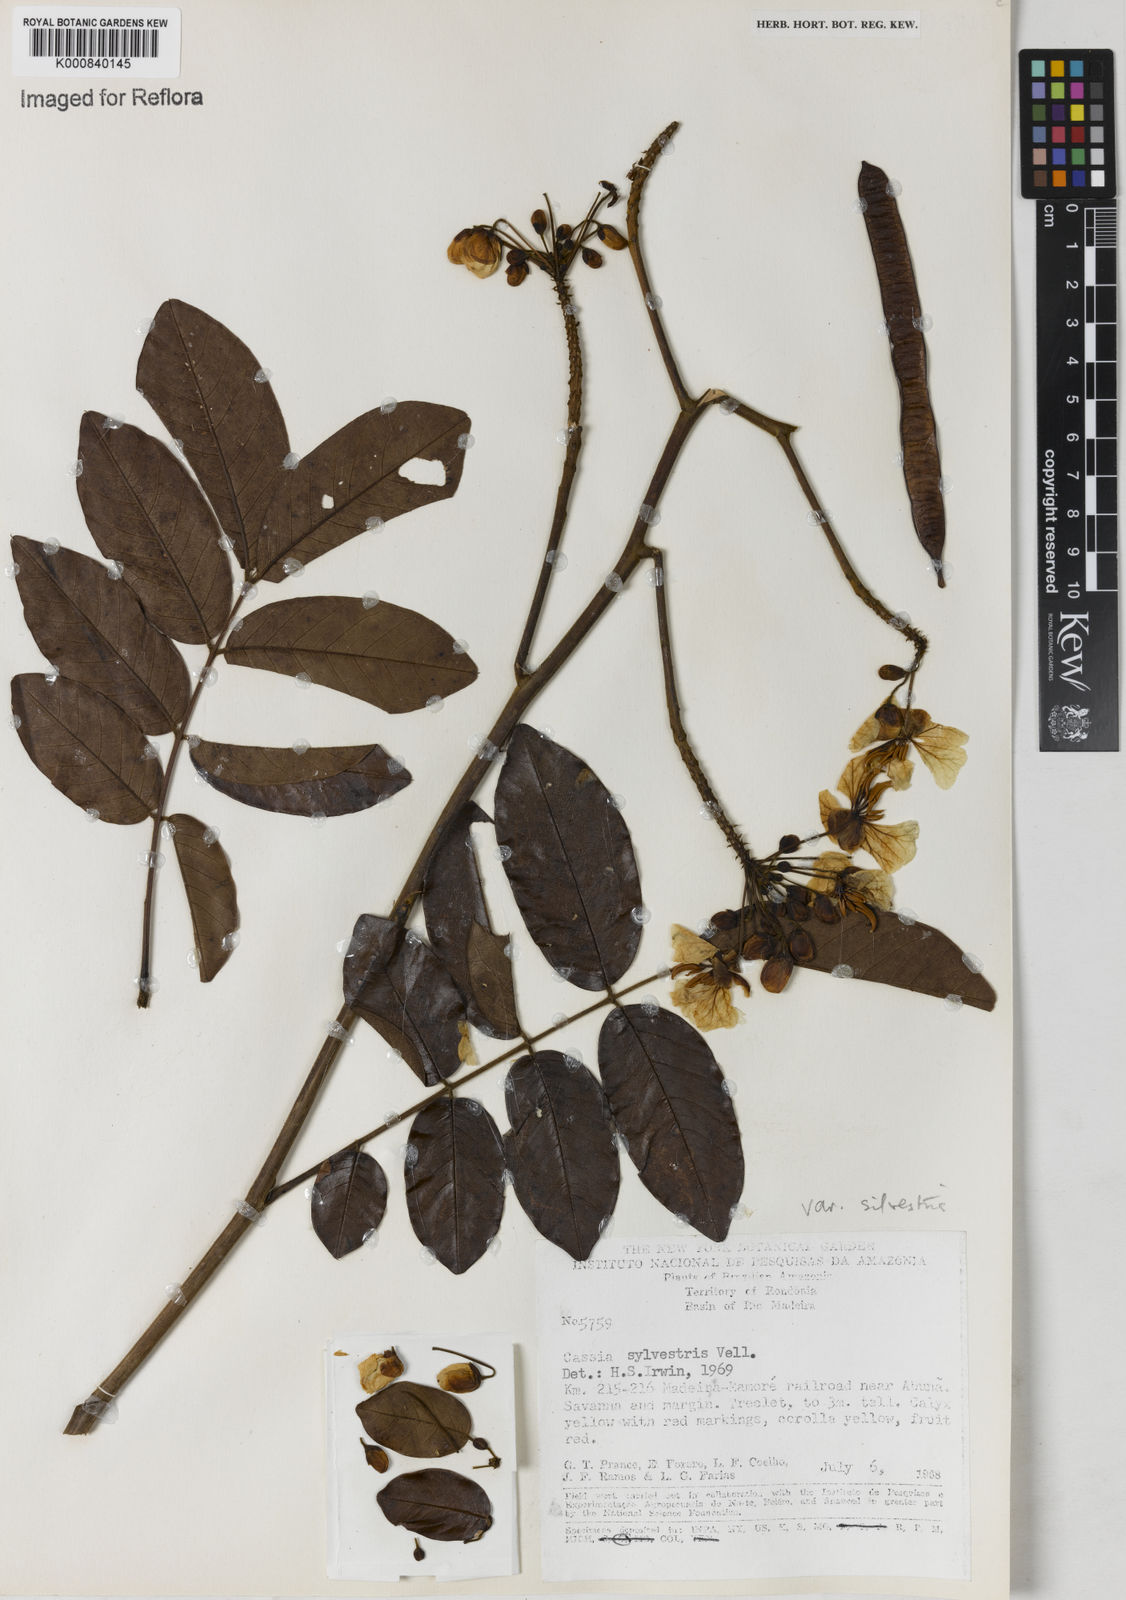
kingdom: Plantae
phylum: Tracheophyta
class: Magnoliopsida
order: Fabales
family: Fabaceae
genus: Senna
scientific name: Senna silvestris
